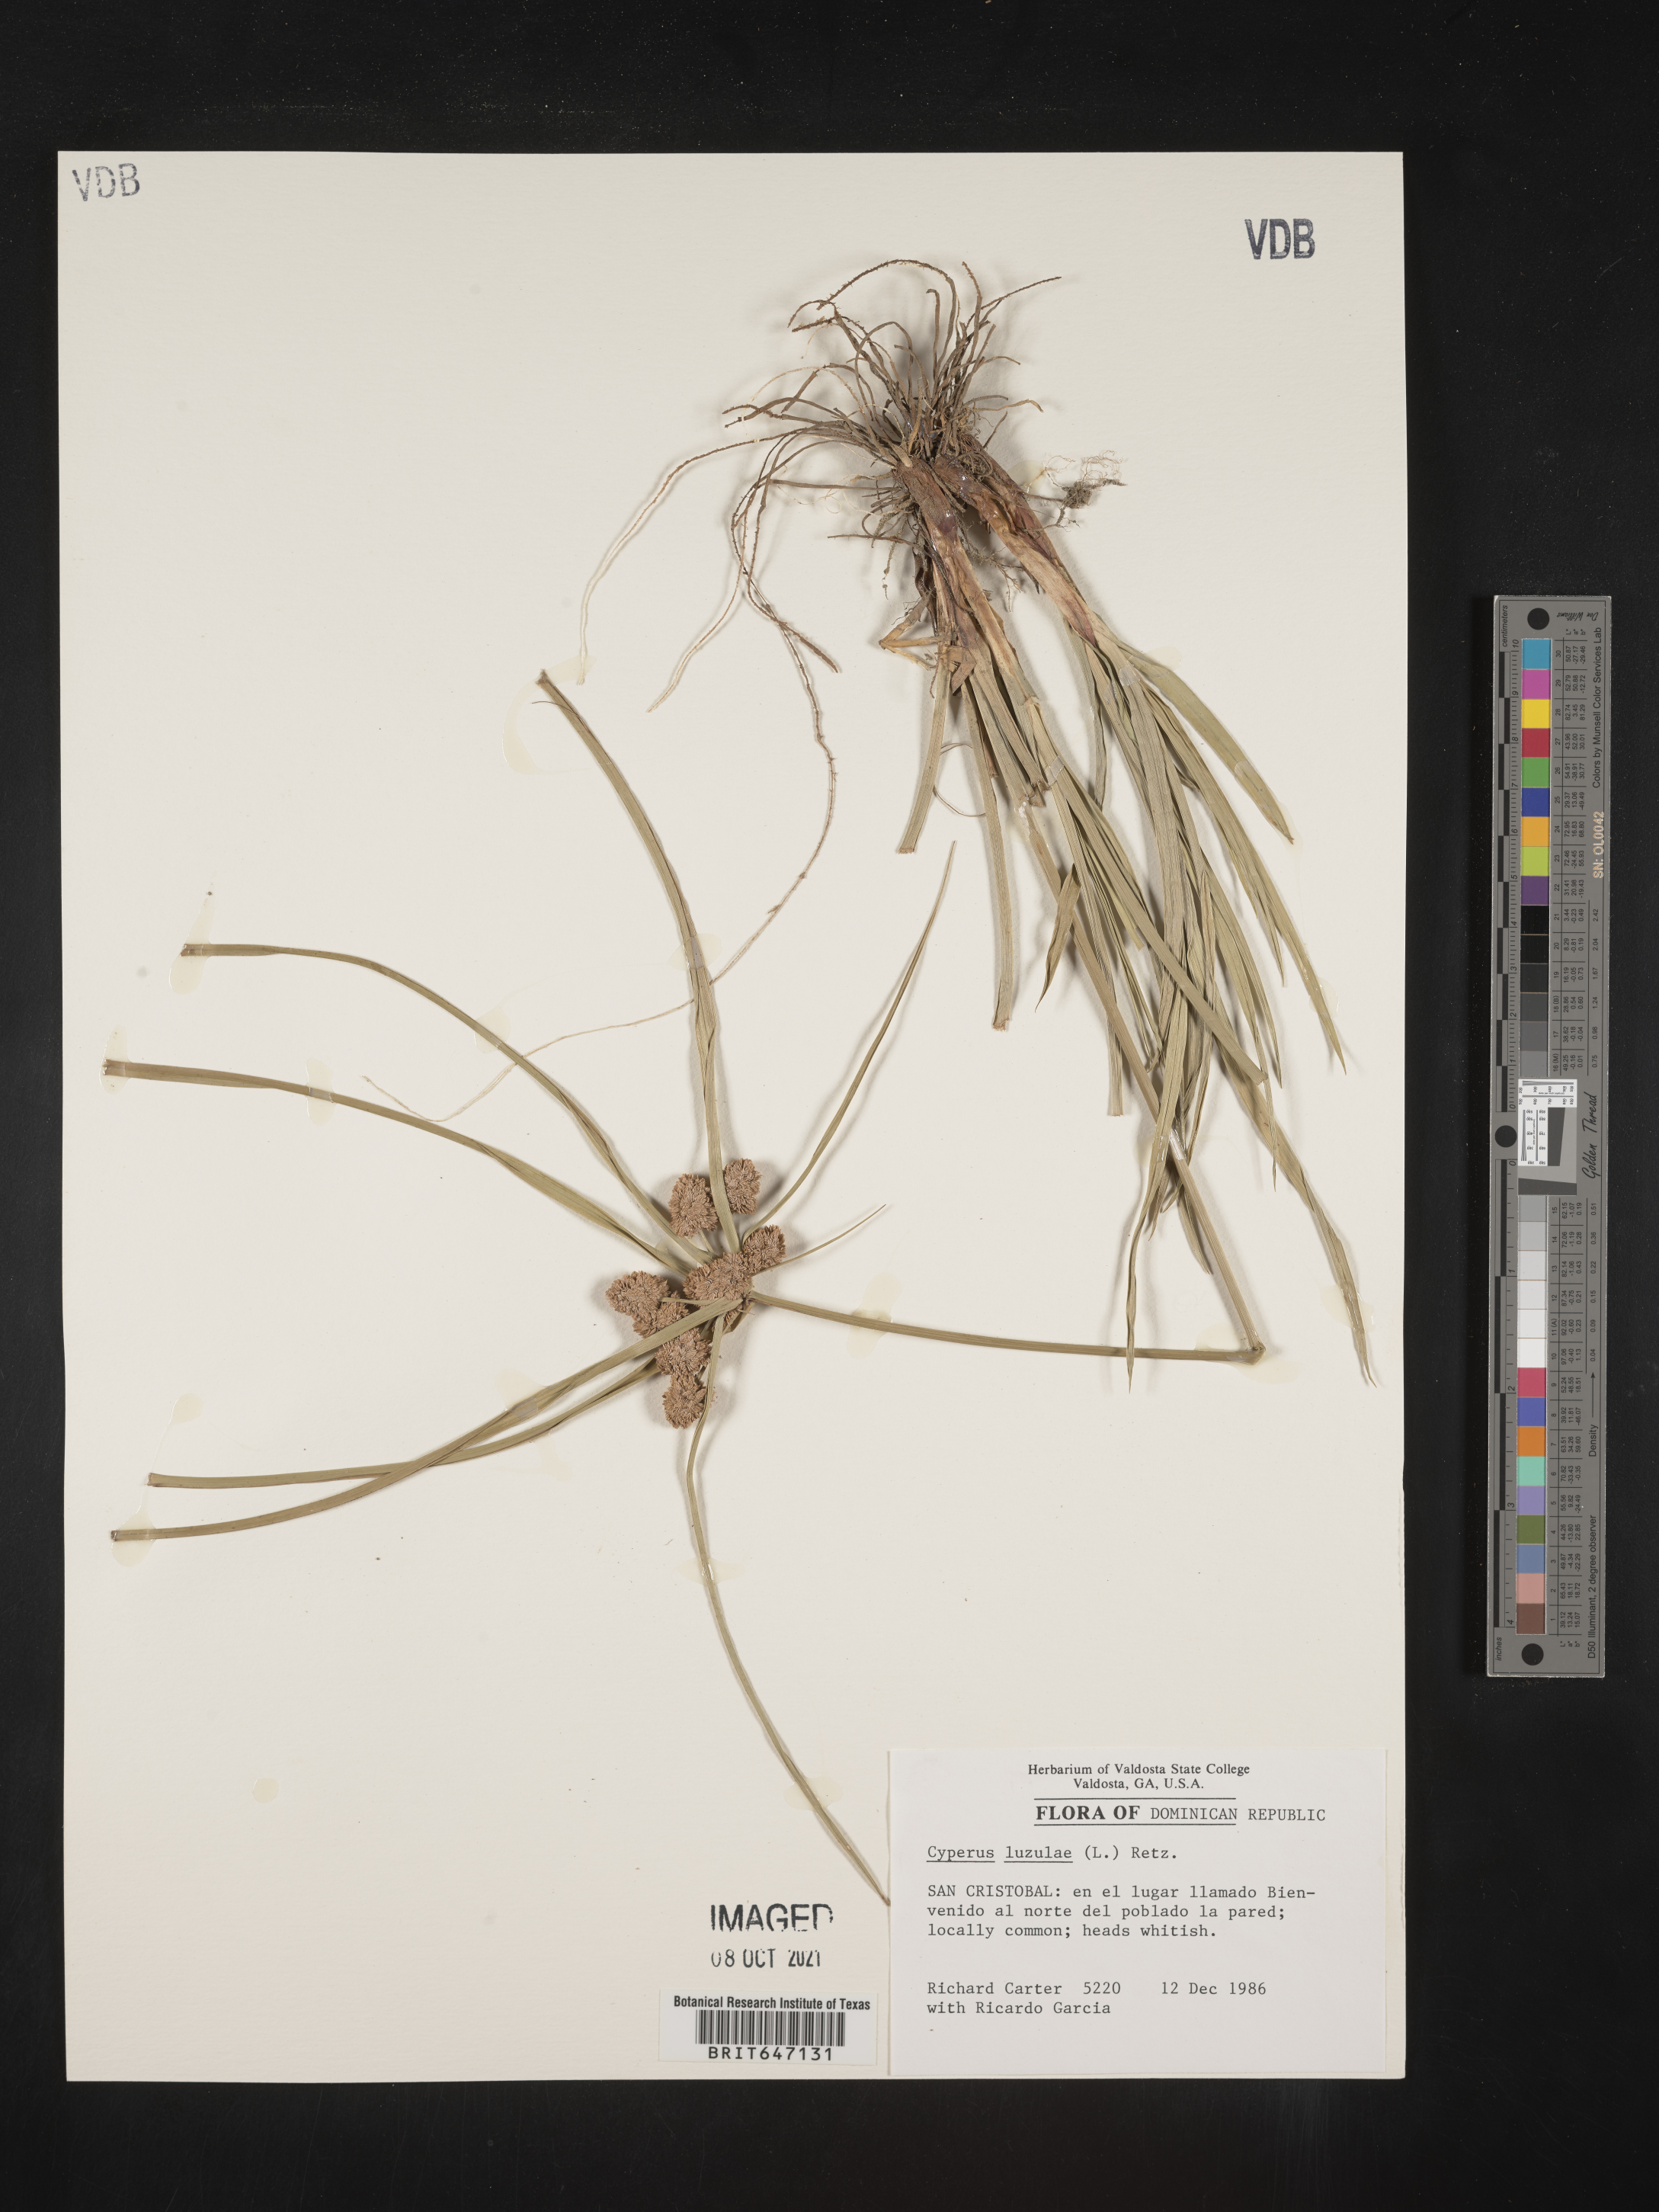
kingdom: Plantae
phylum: Tracheophyta
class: Liliopsida
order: Poales
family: Cyperaceae
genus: Cyperus
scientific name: Cyperus luzulae
